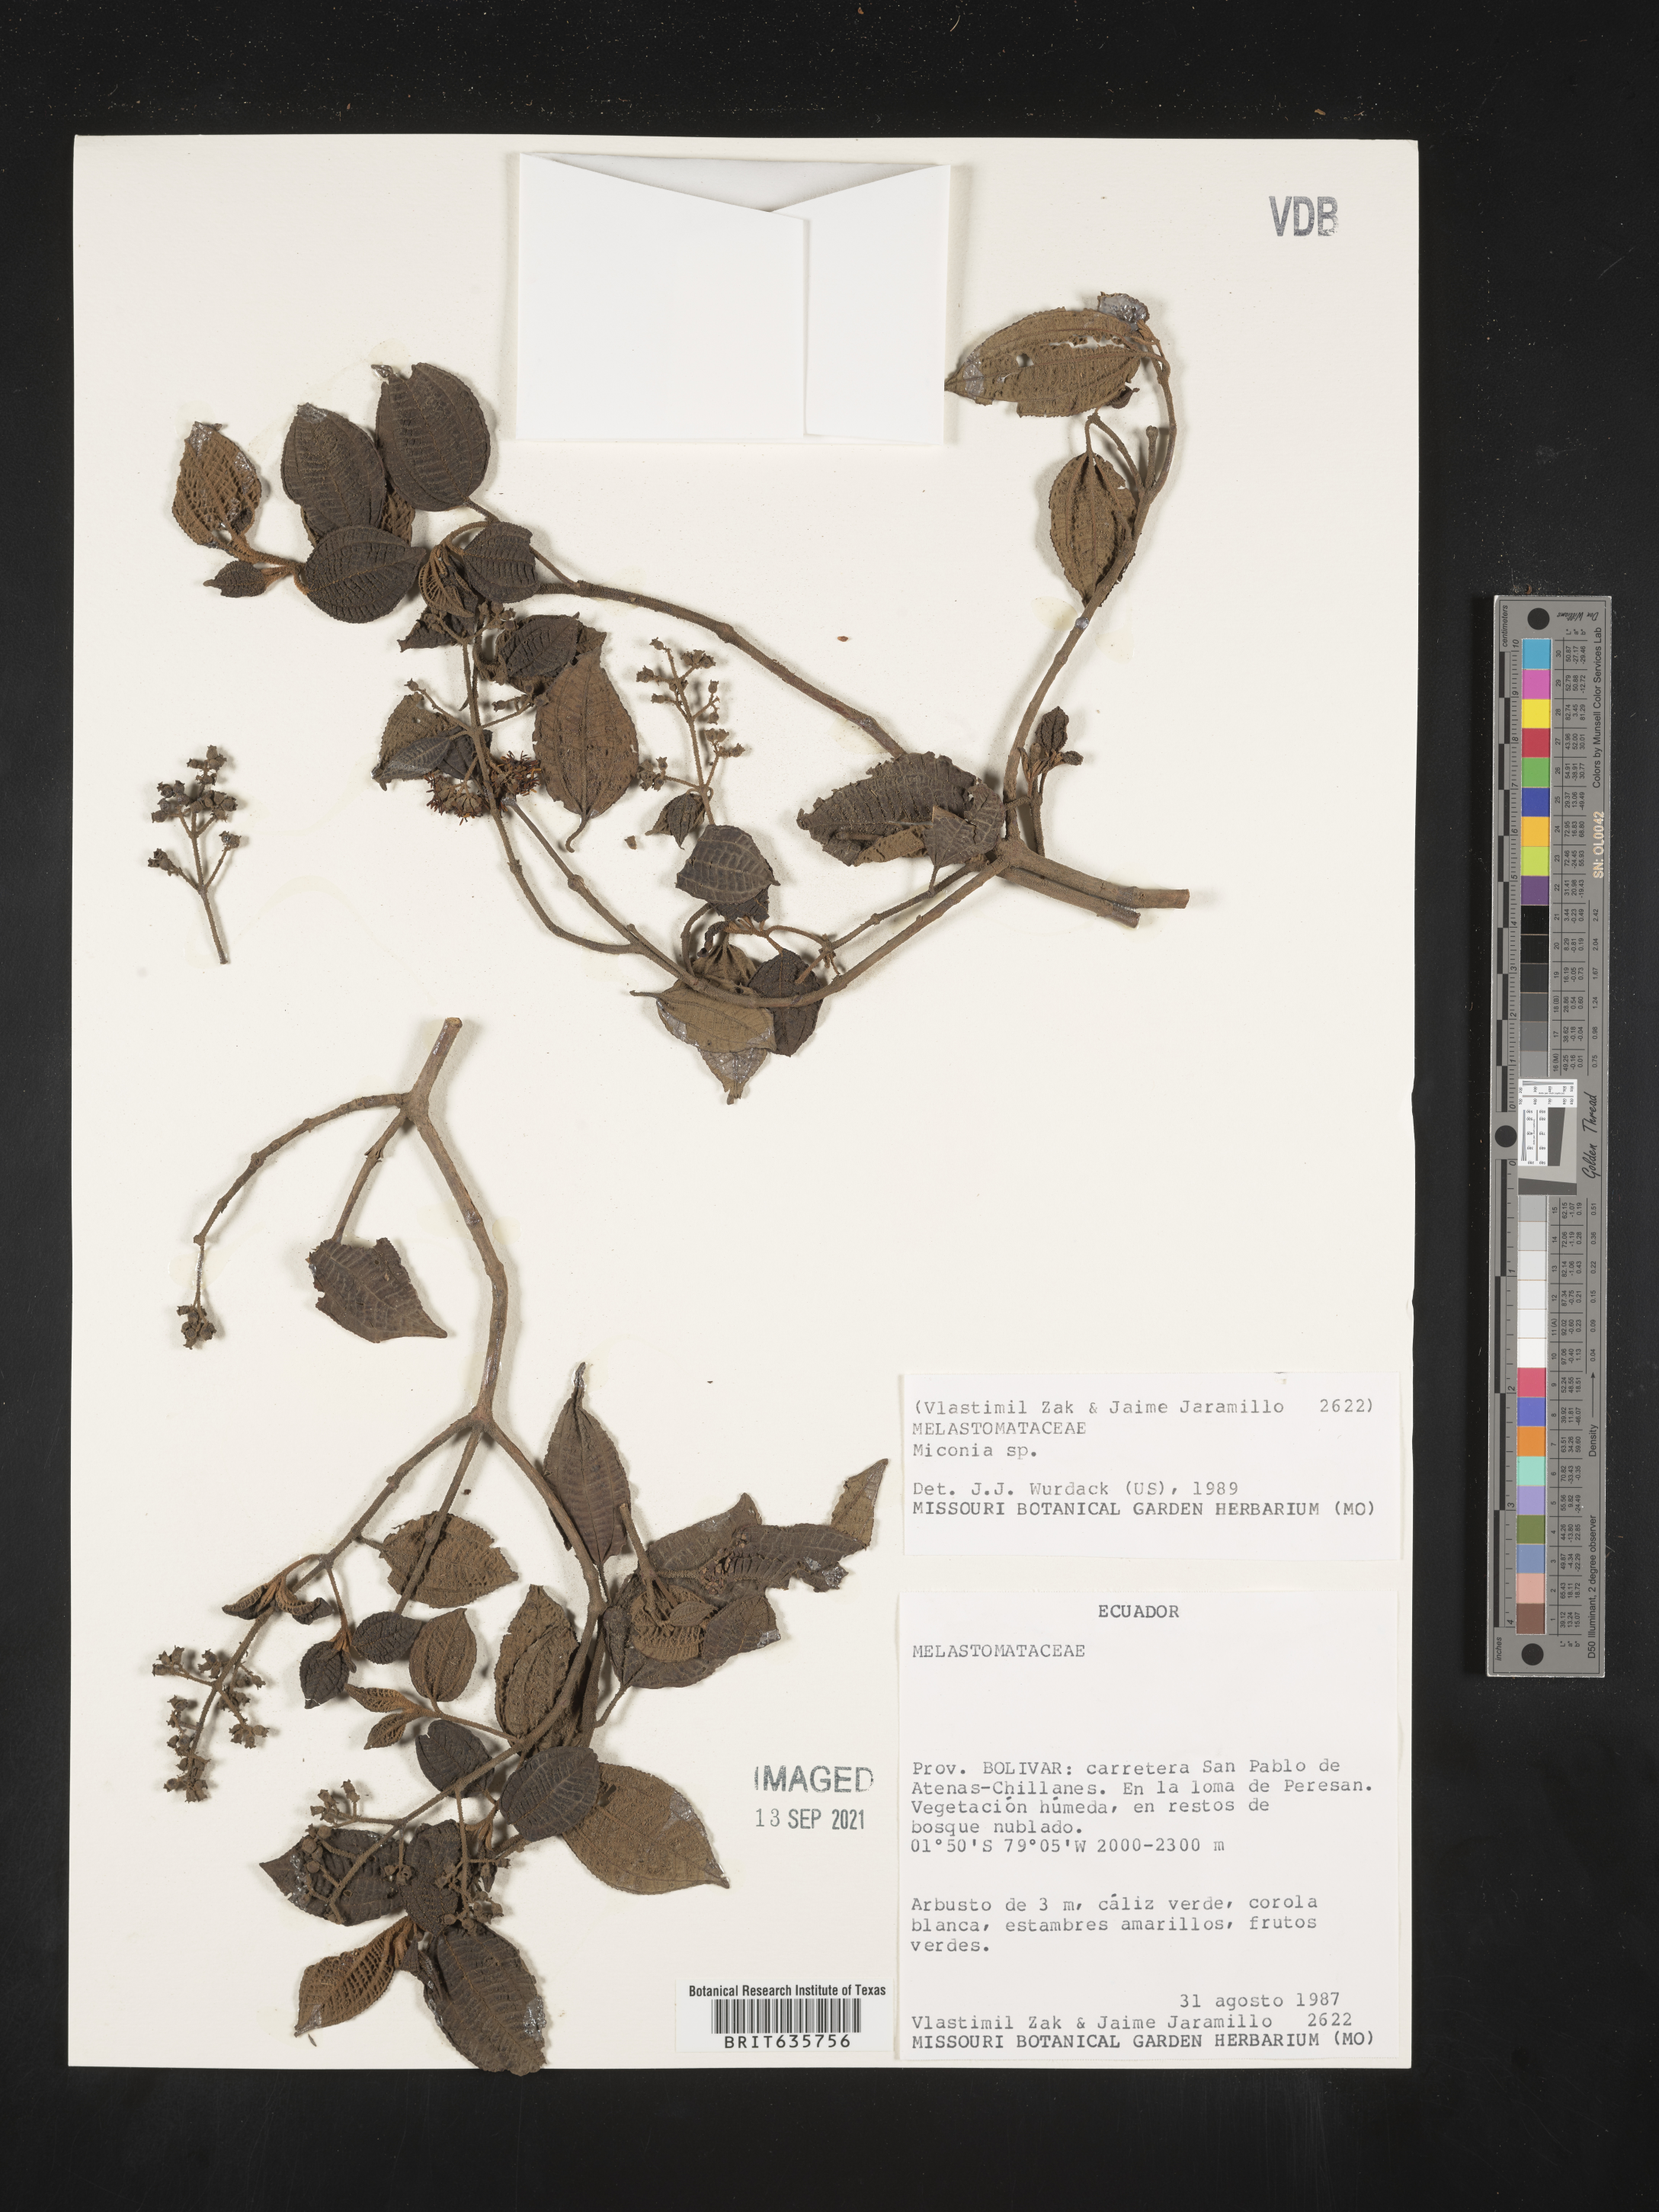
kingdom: Plantae
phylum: Tracheophyta
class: Magnoliopsida
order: Myrtales
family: Melastomataceae
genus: Miconia
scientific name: Miconia
